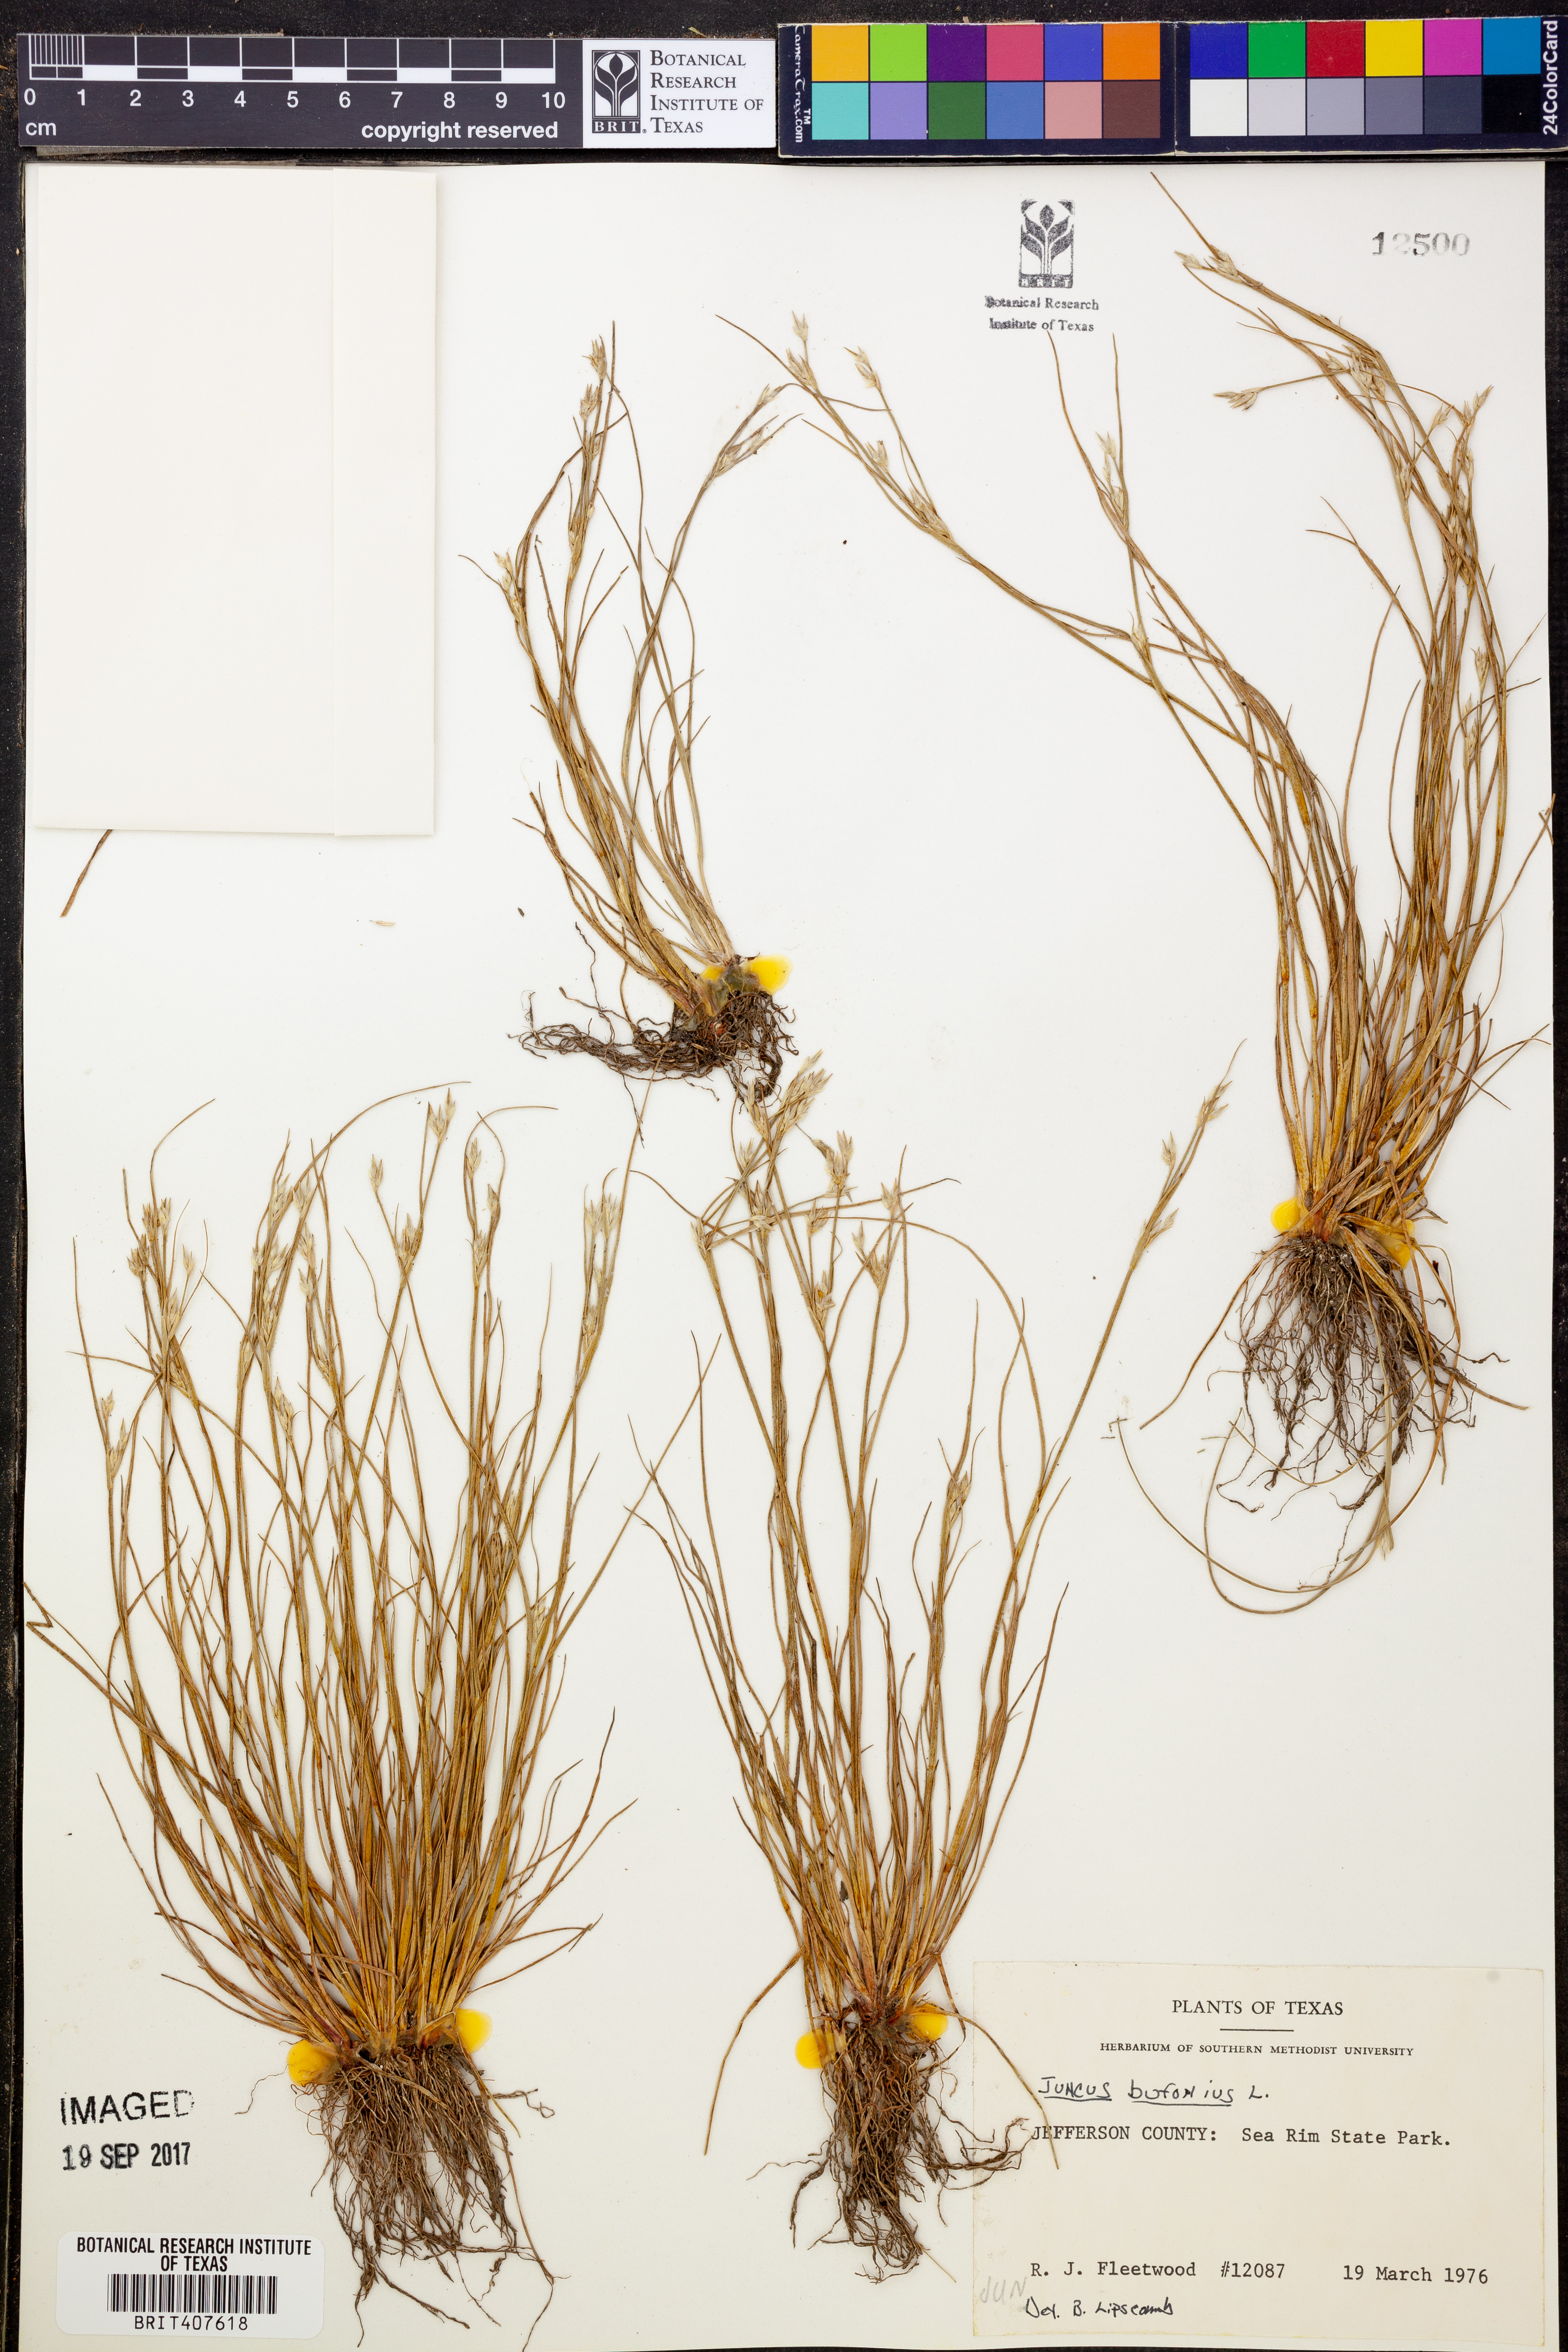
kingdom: Plantae
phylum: Tracheophyta
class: Liliopsida
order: Poales
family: Juncaceae
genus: Juncus
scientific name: Juncus bufonius
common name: Toad rush
